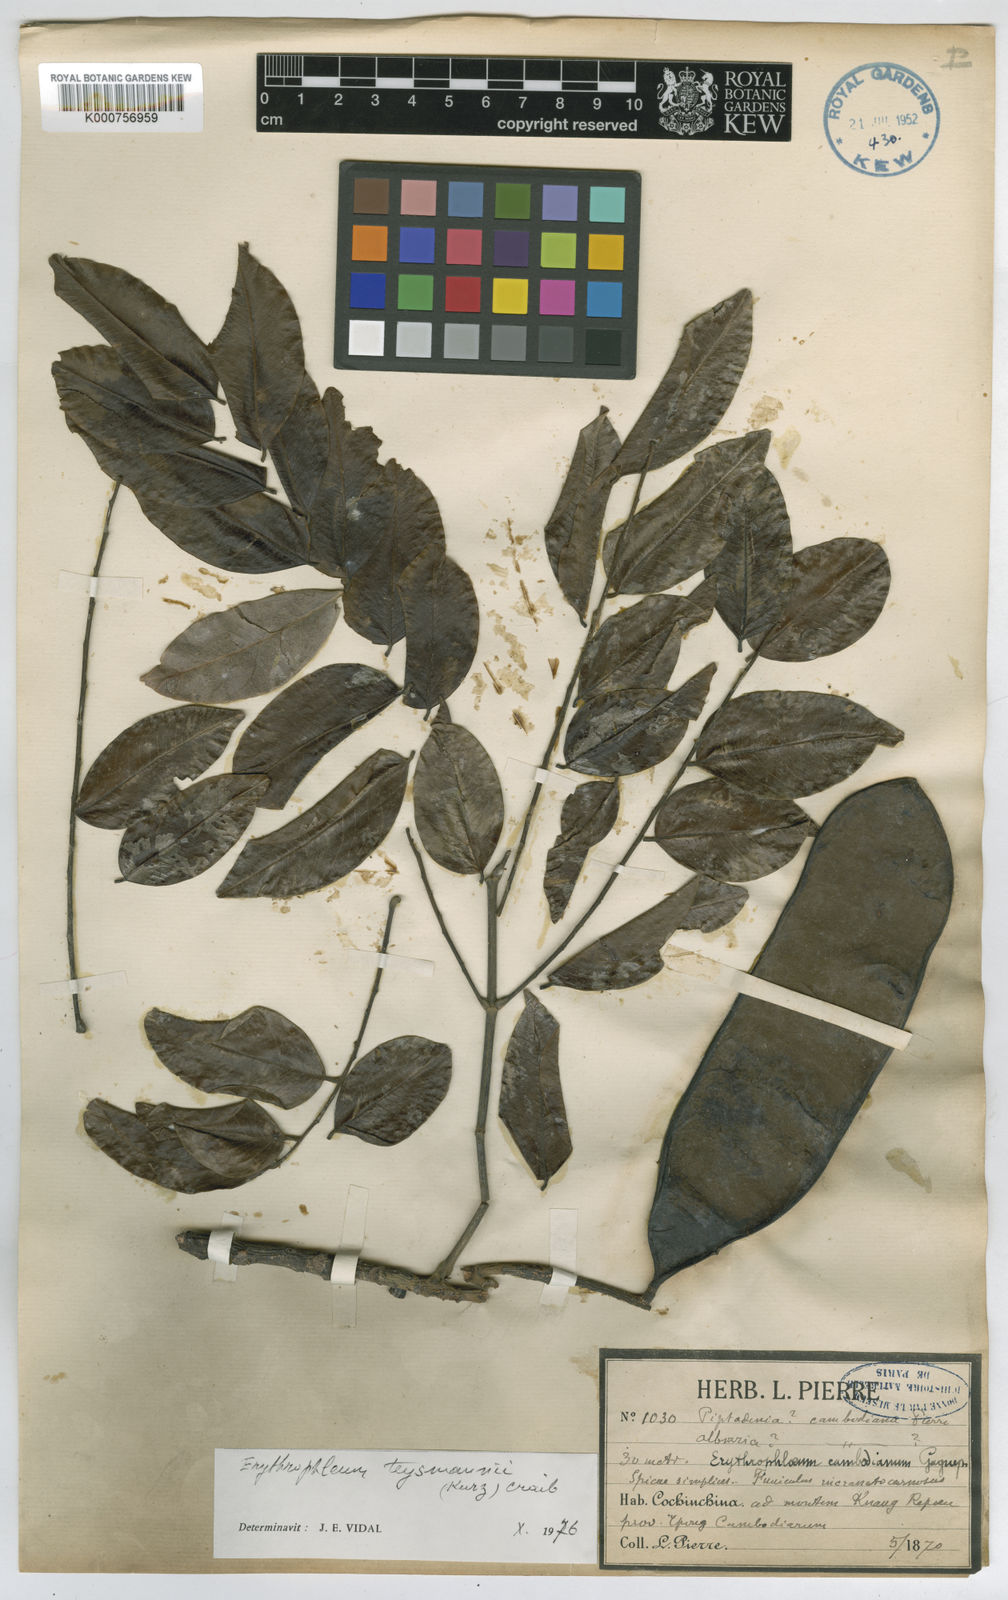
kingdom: Plantae
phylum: Tracheophyta
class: Magnoliopsida
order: Fabales
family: Fabaceae
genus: Erythrophleum
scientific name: Erythrophleum teysmannii
